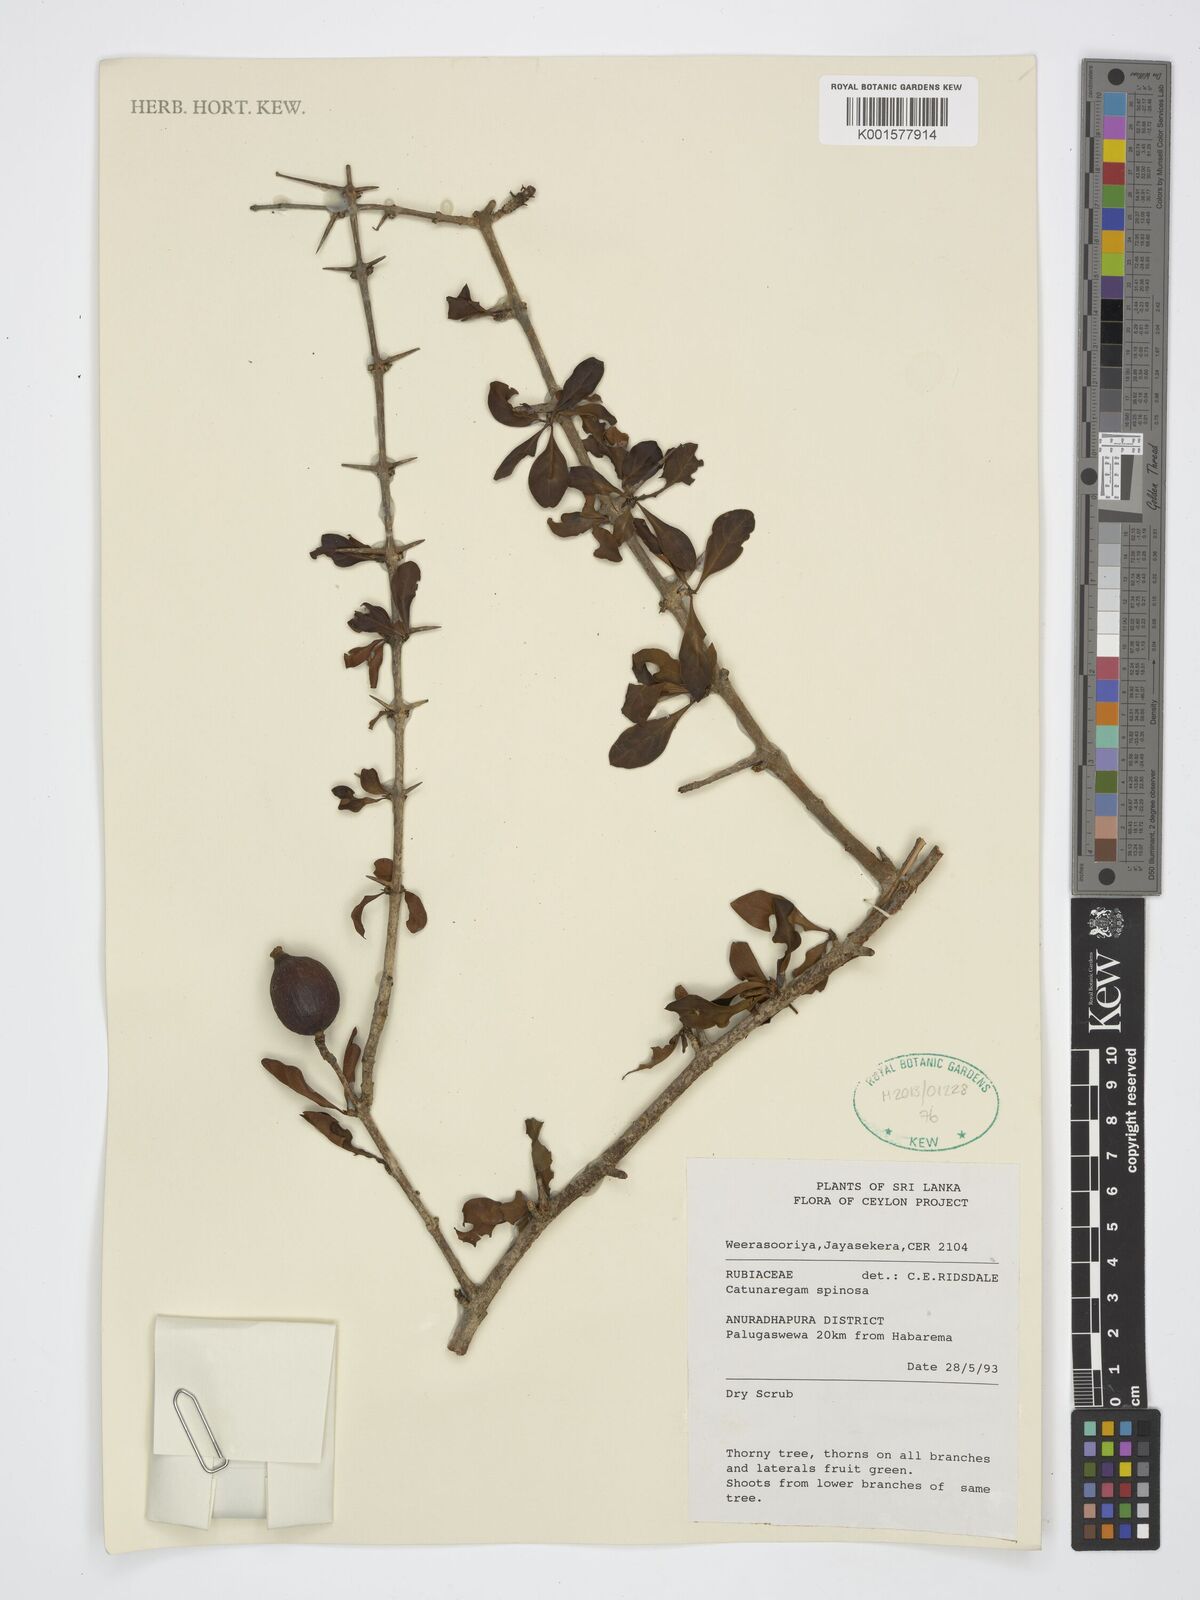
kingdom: Plantae
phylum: Tracheophyta
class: Magnoliopsida
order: Gentianales
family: Rubiaceae
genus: Catunaregam
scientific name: Catunaregam spinosa
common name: Emetic-nut
